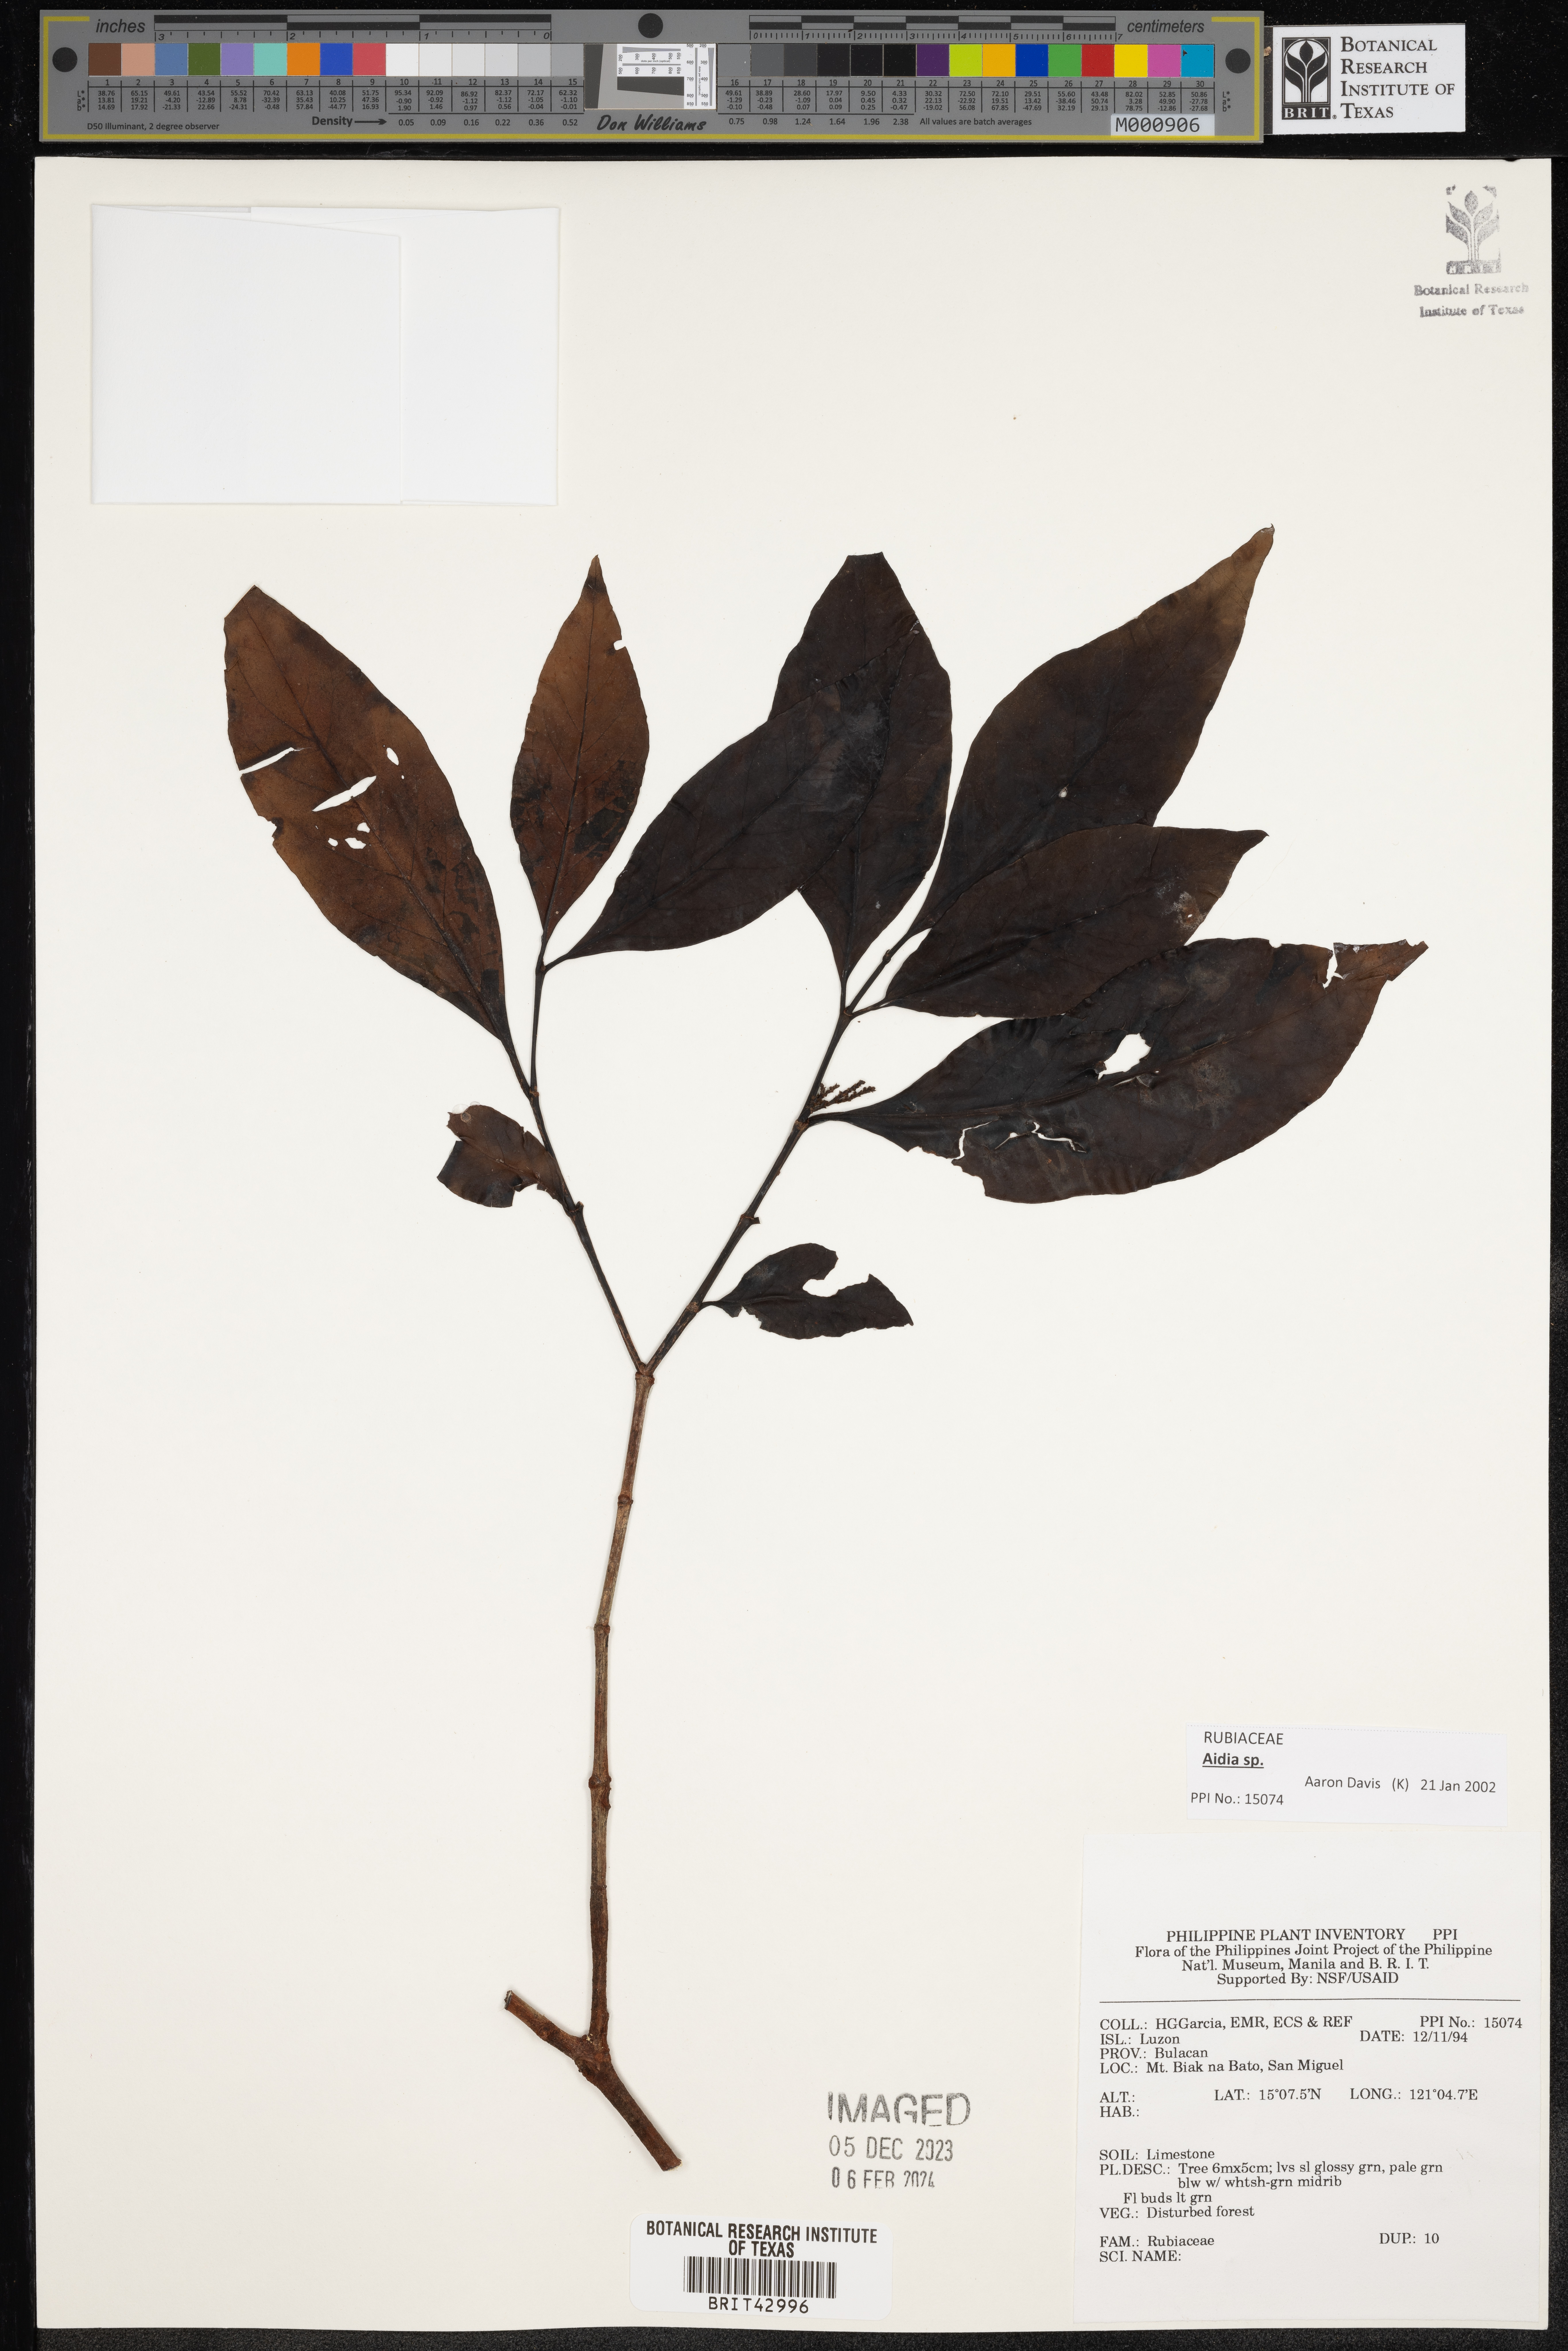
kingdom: Plantae
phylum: Tracheophyta
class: Magnoliopsida
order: Gentianales
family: Rubiaceae
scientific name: Rubiaceae
